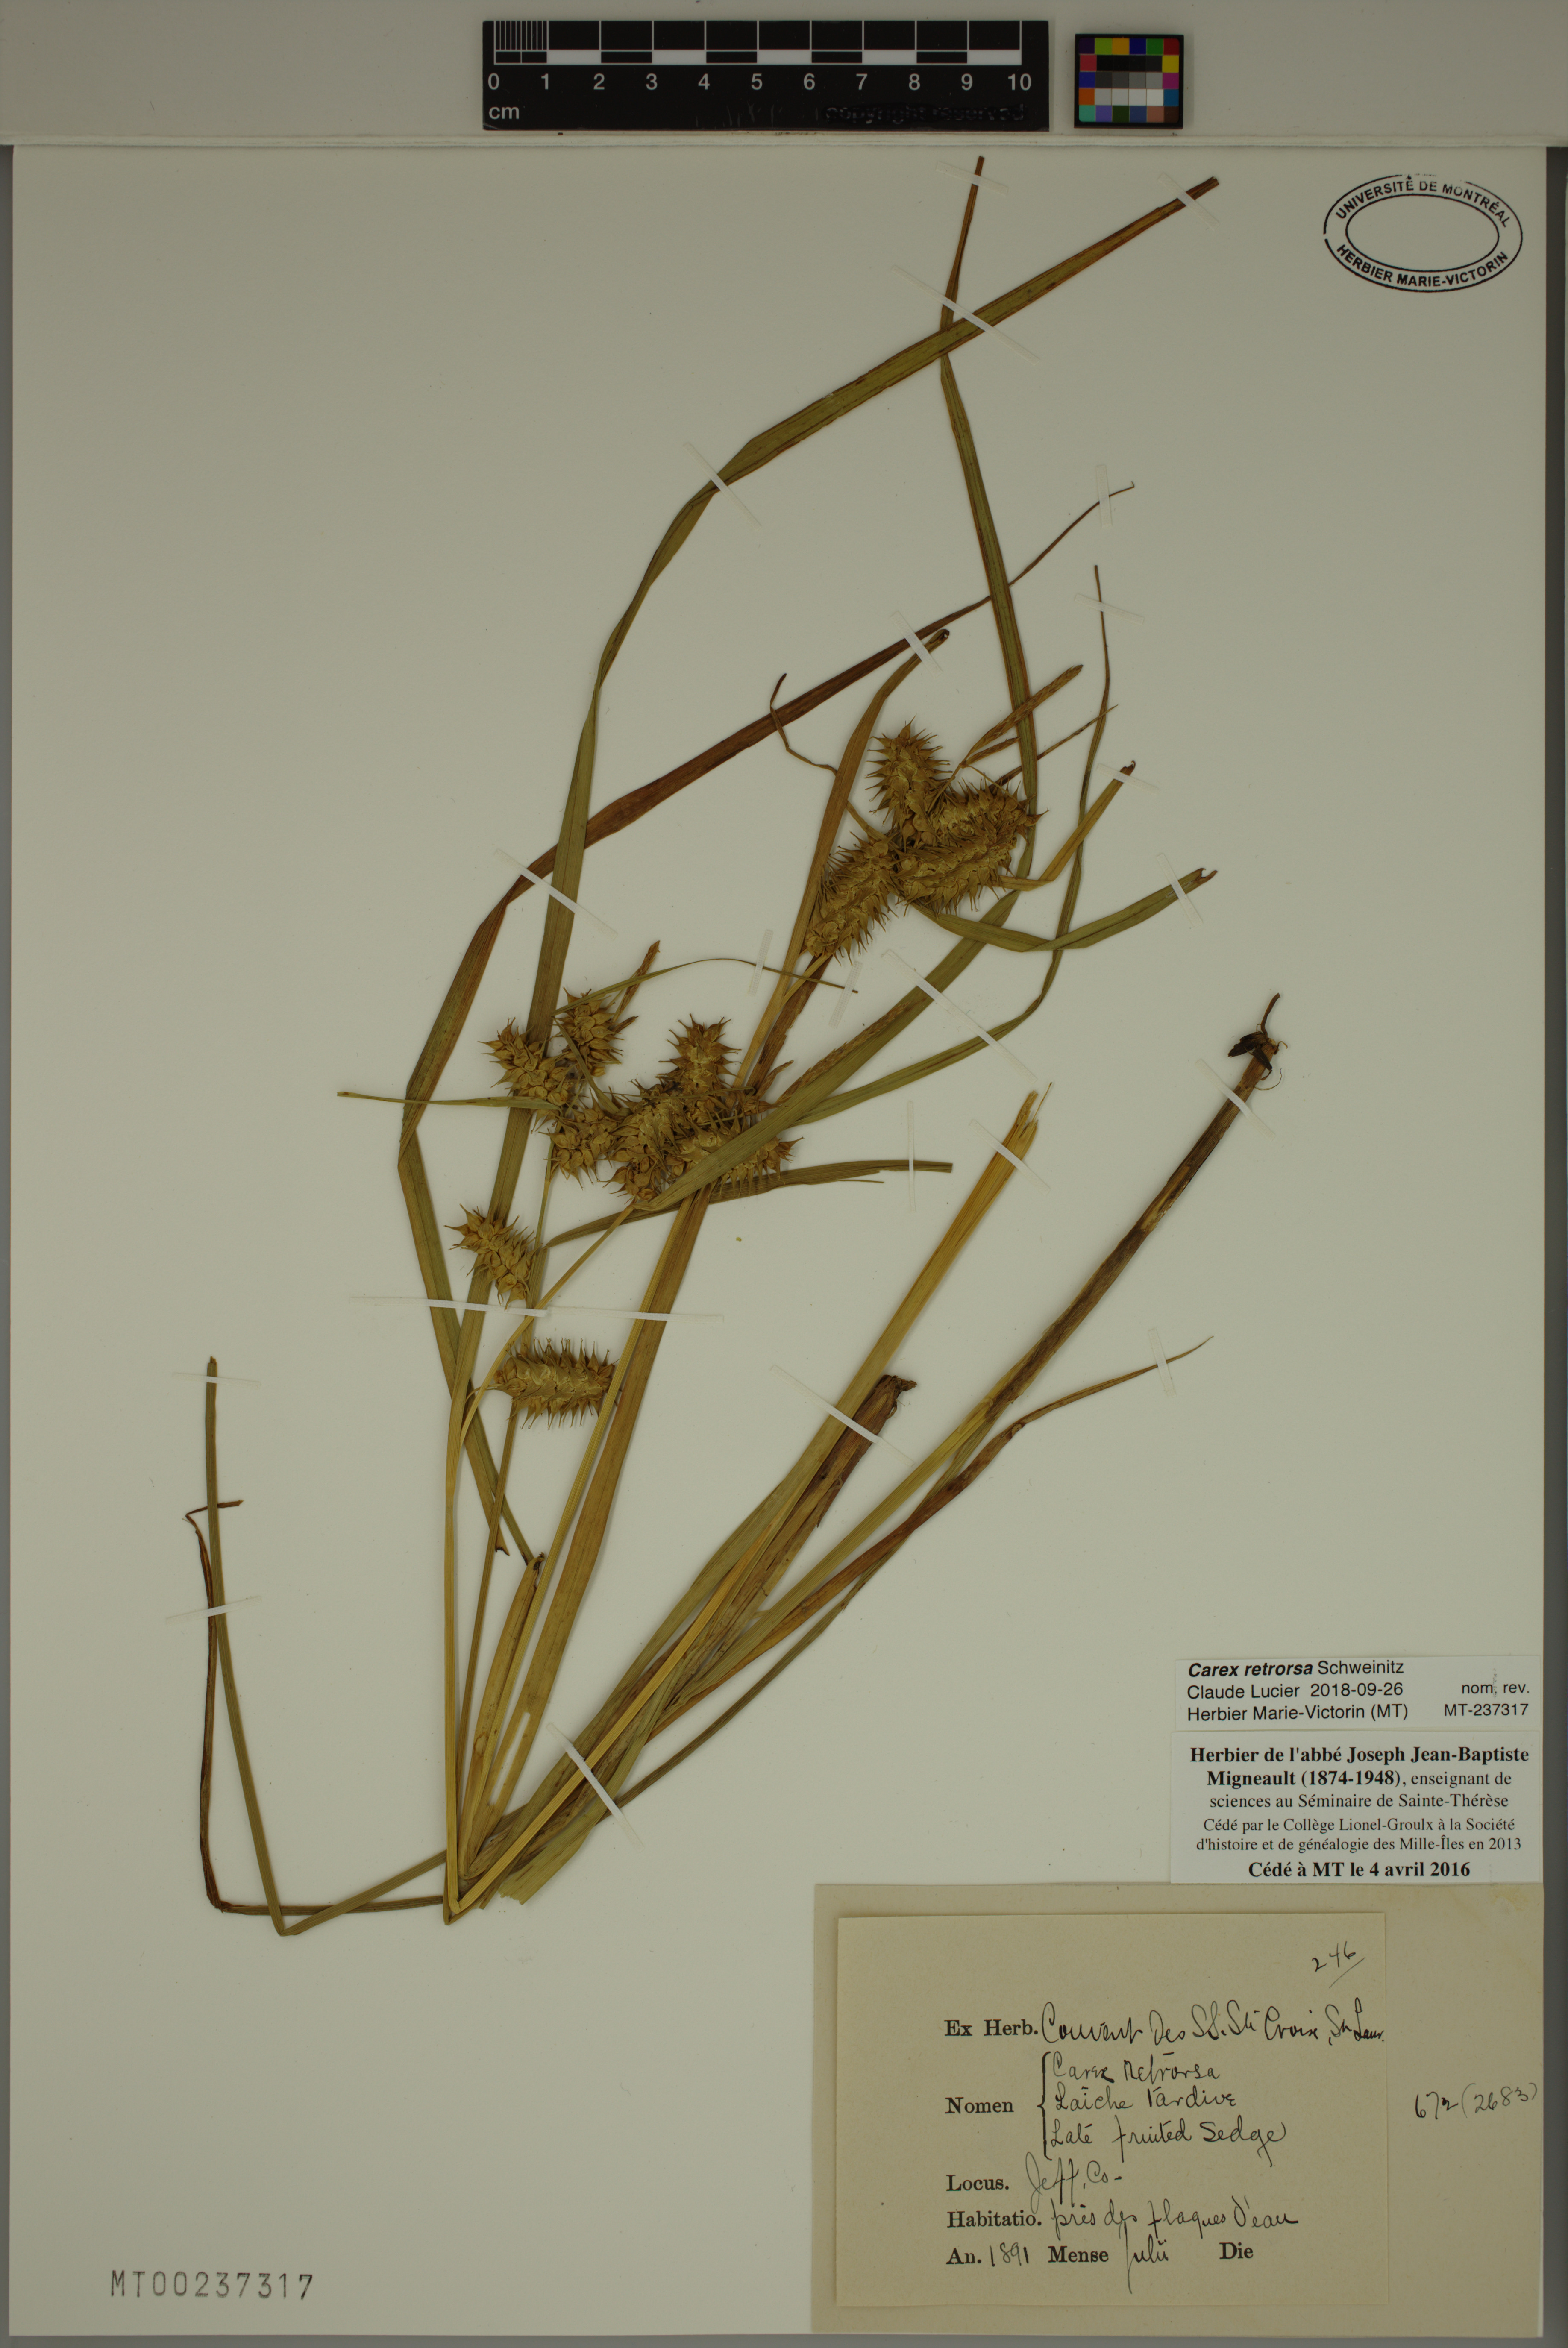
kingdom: Plantae
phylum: Tracheophyta
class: Liliopsida
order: Poales
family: Cyperaceae
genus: Carex
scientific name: Carex retrorsa
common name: Knot-sheath sedge
